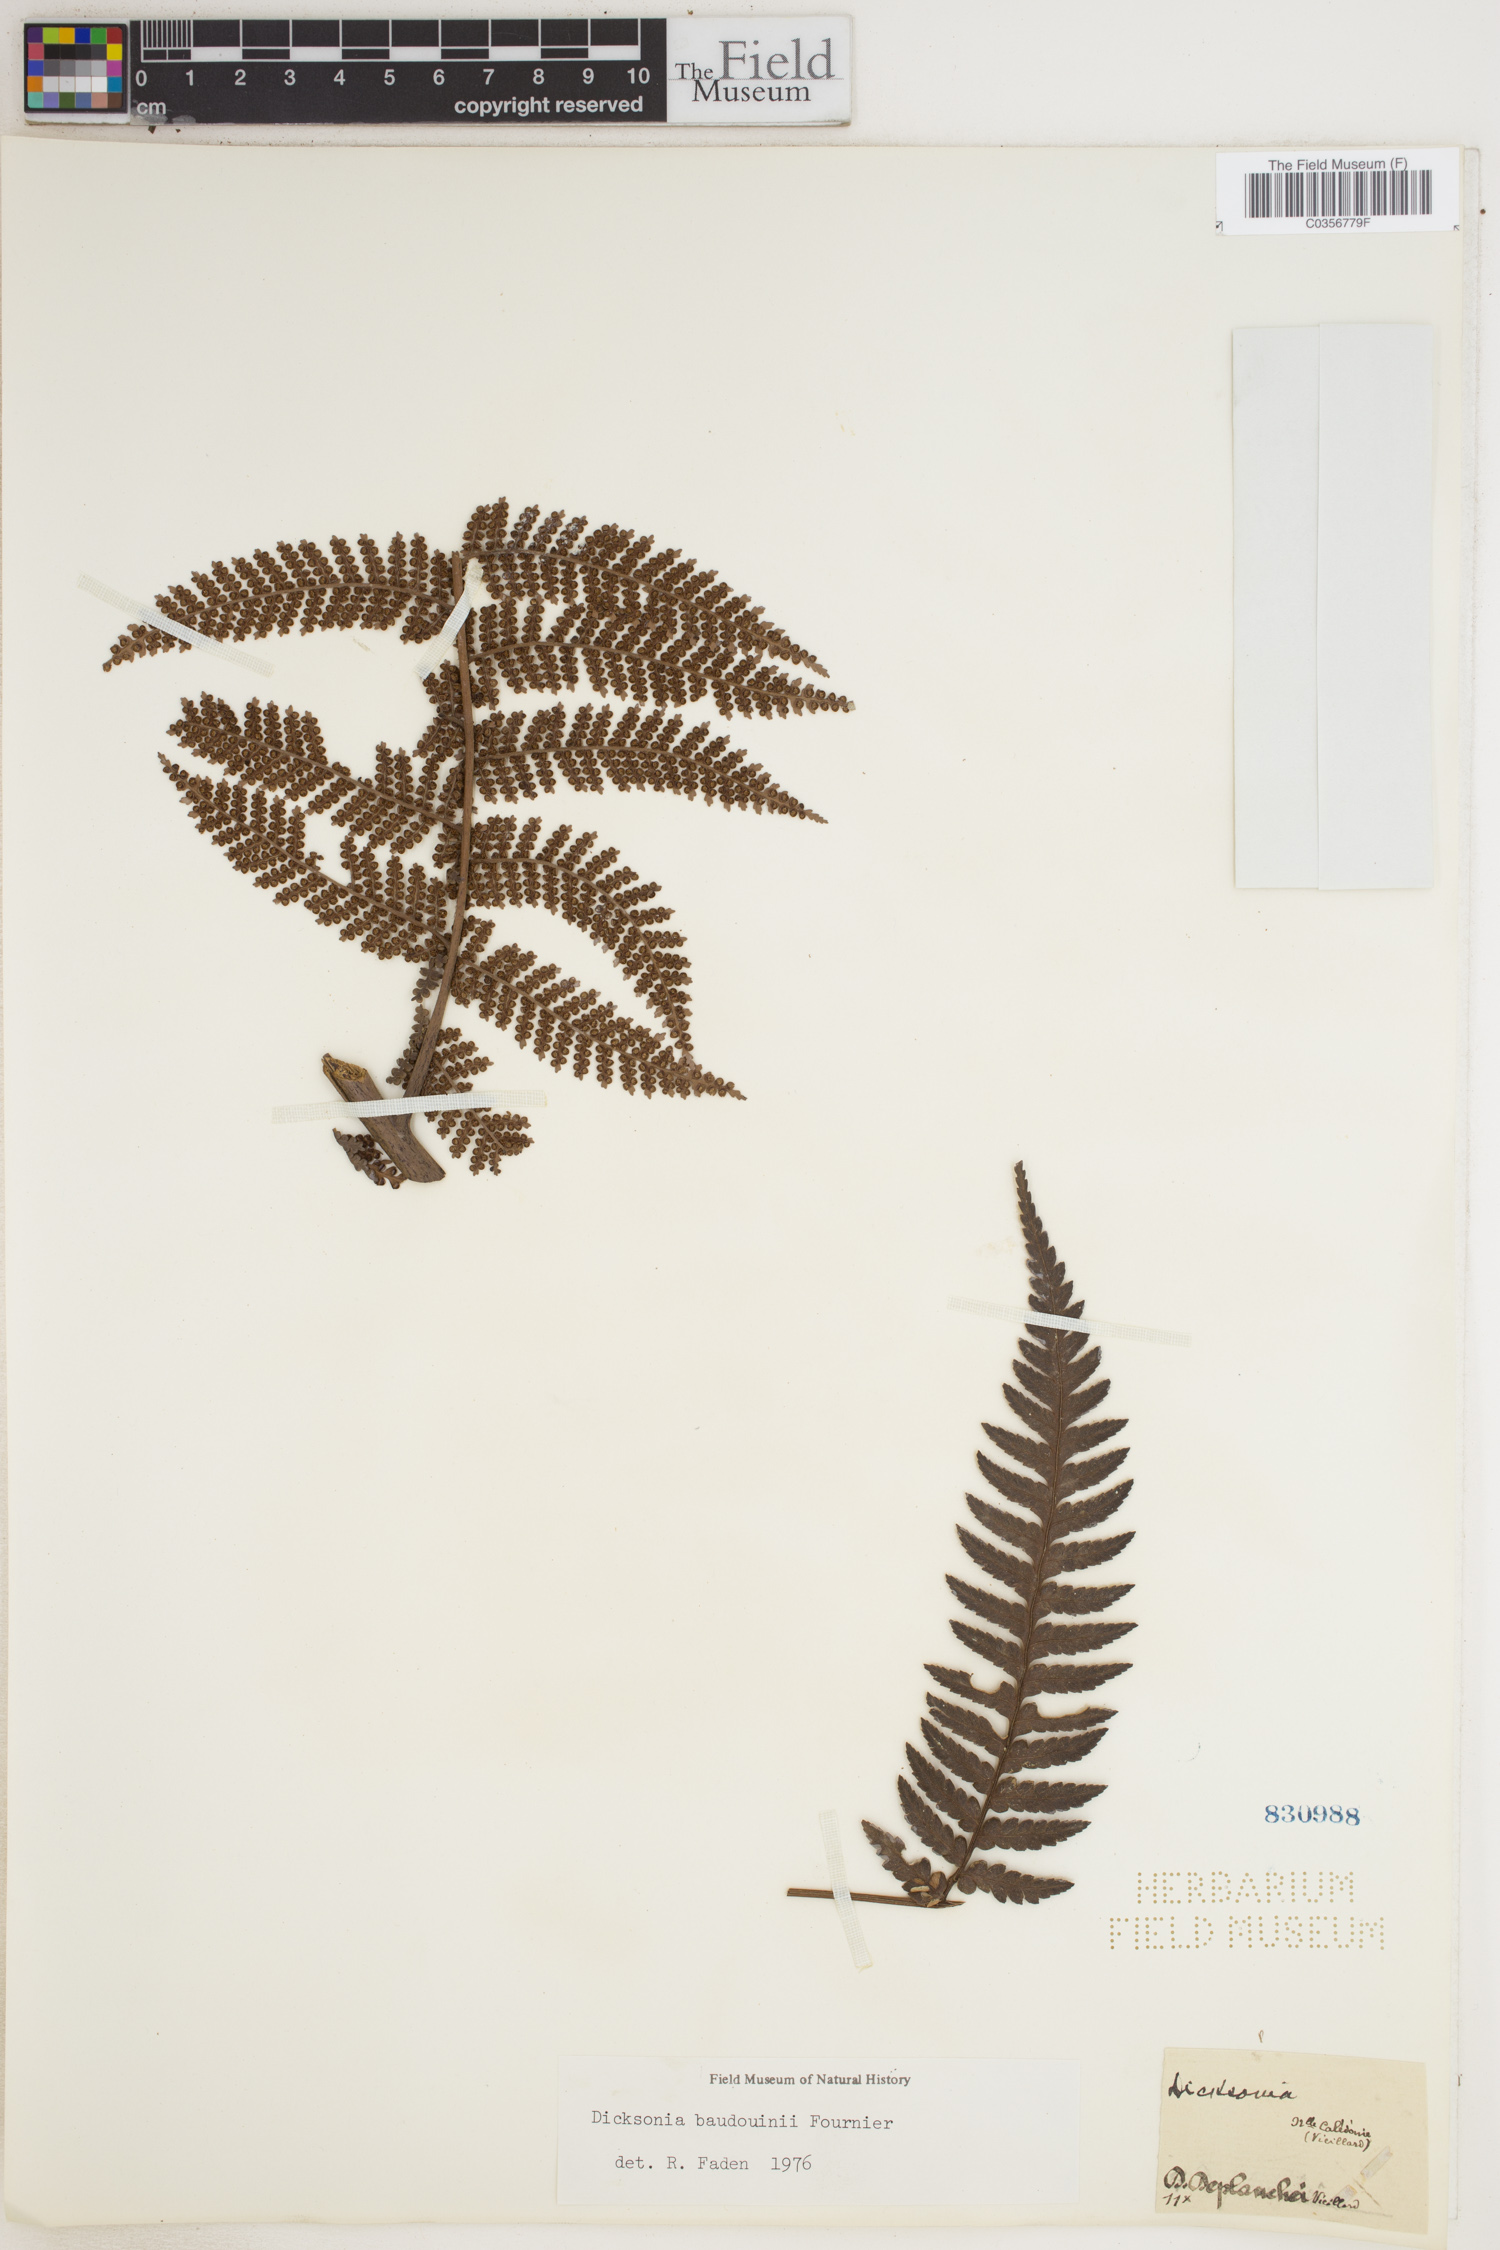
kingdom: Plantae
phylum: Tracheophyta
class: Polypodiopsida
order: Cyatheales
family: Dicksoniaceae
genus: Dicksonia
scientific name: Dicksonia baudouinii
